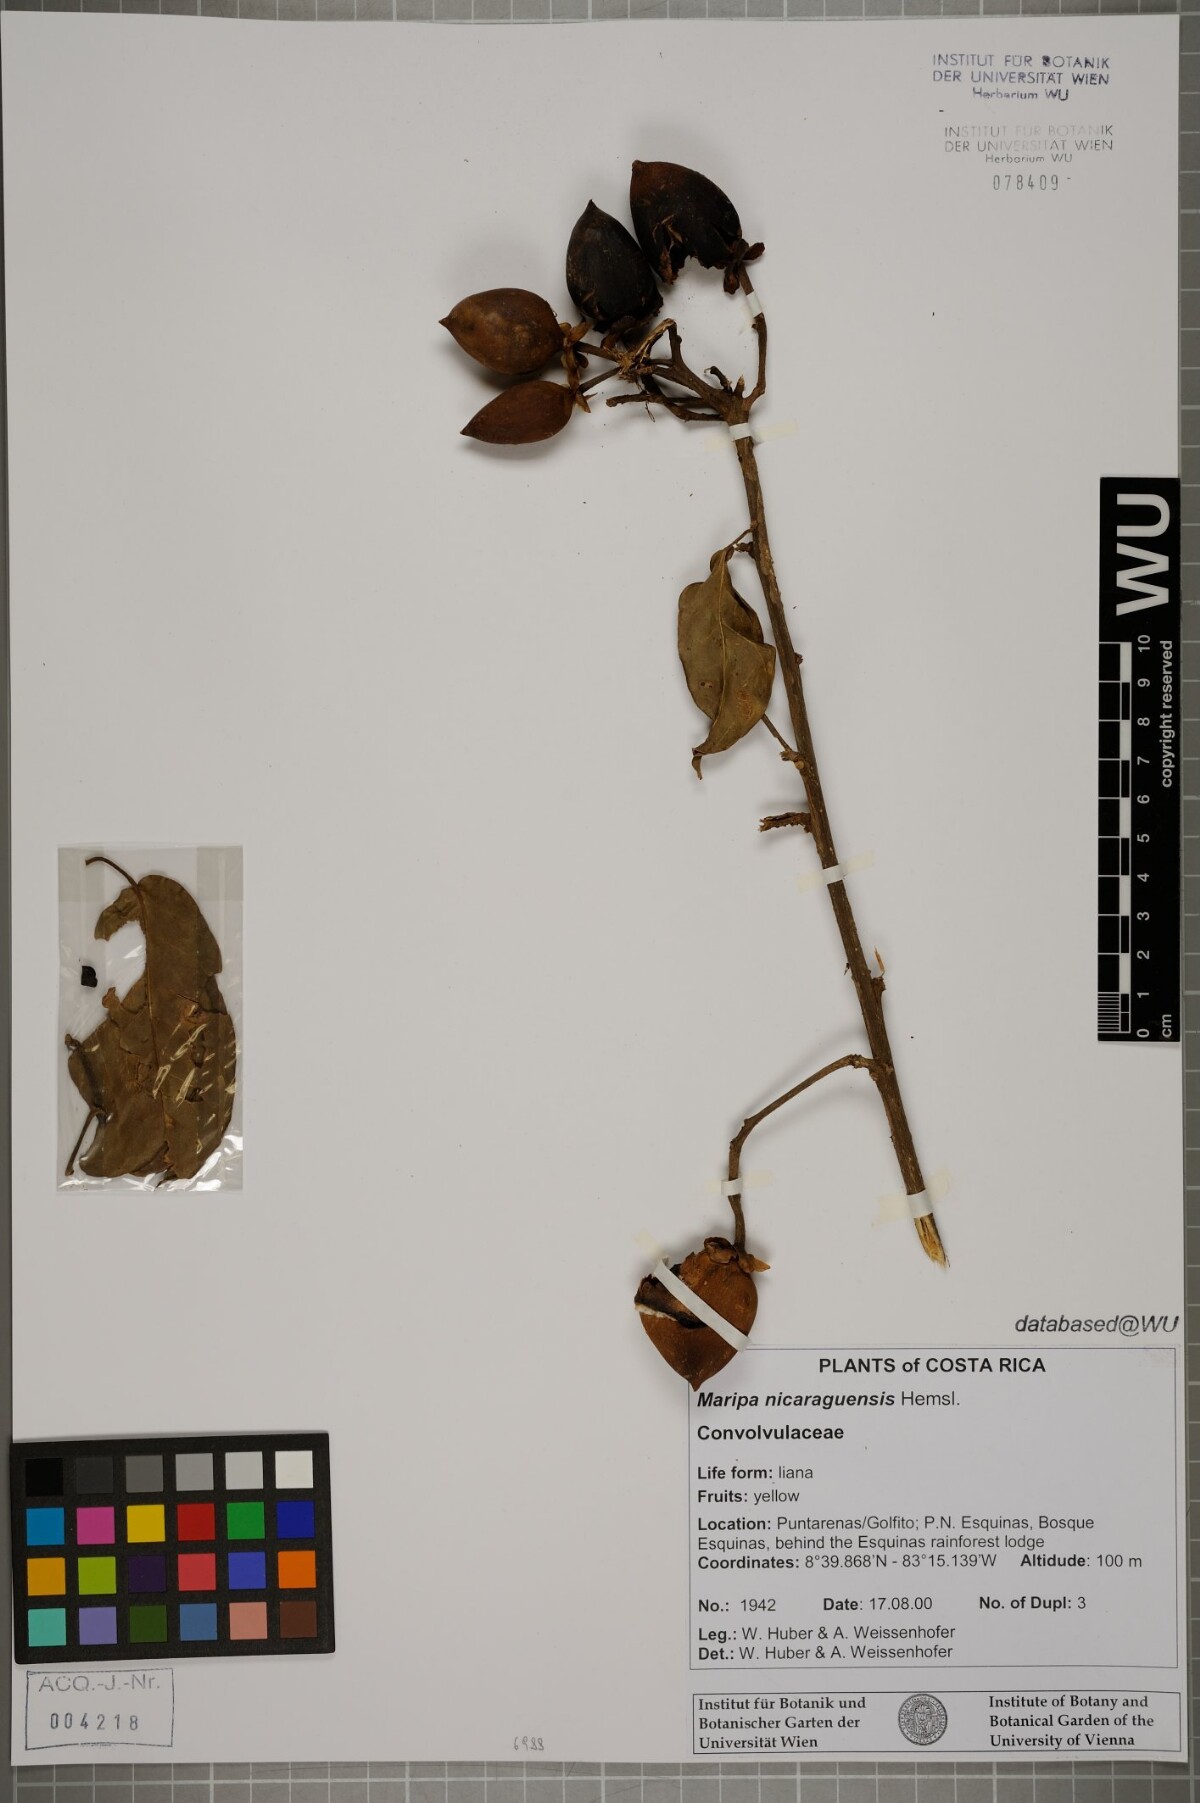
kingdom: Plantae
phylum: Tracheophyta
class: Magnoliopsida
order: Solanales
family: Convolvulaceae
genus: Maripa
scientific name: Maripa nicaraguensis
